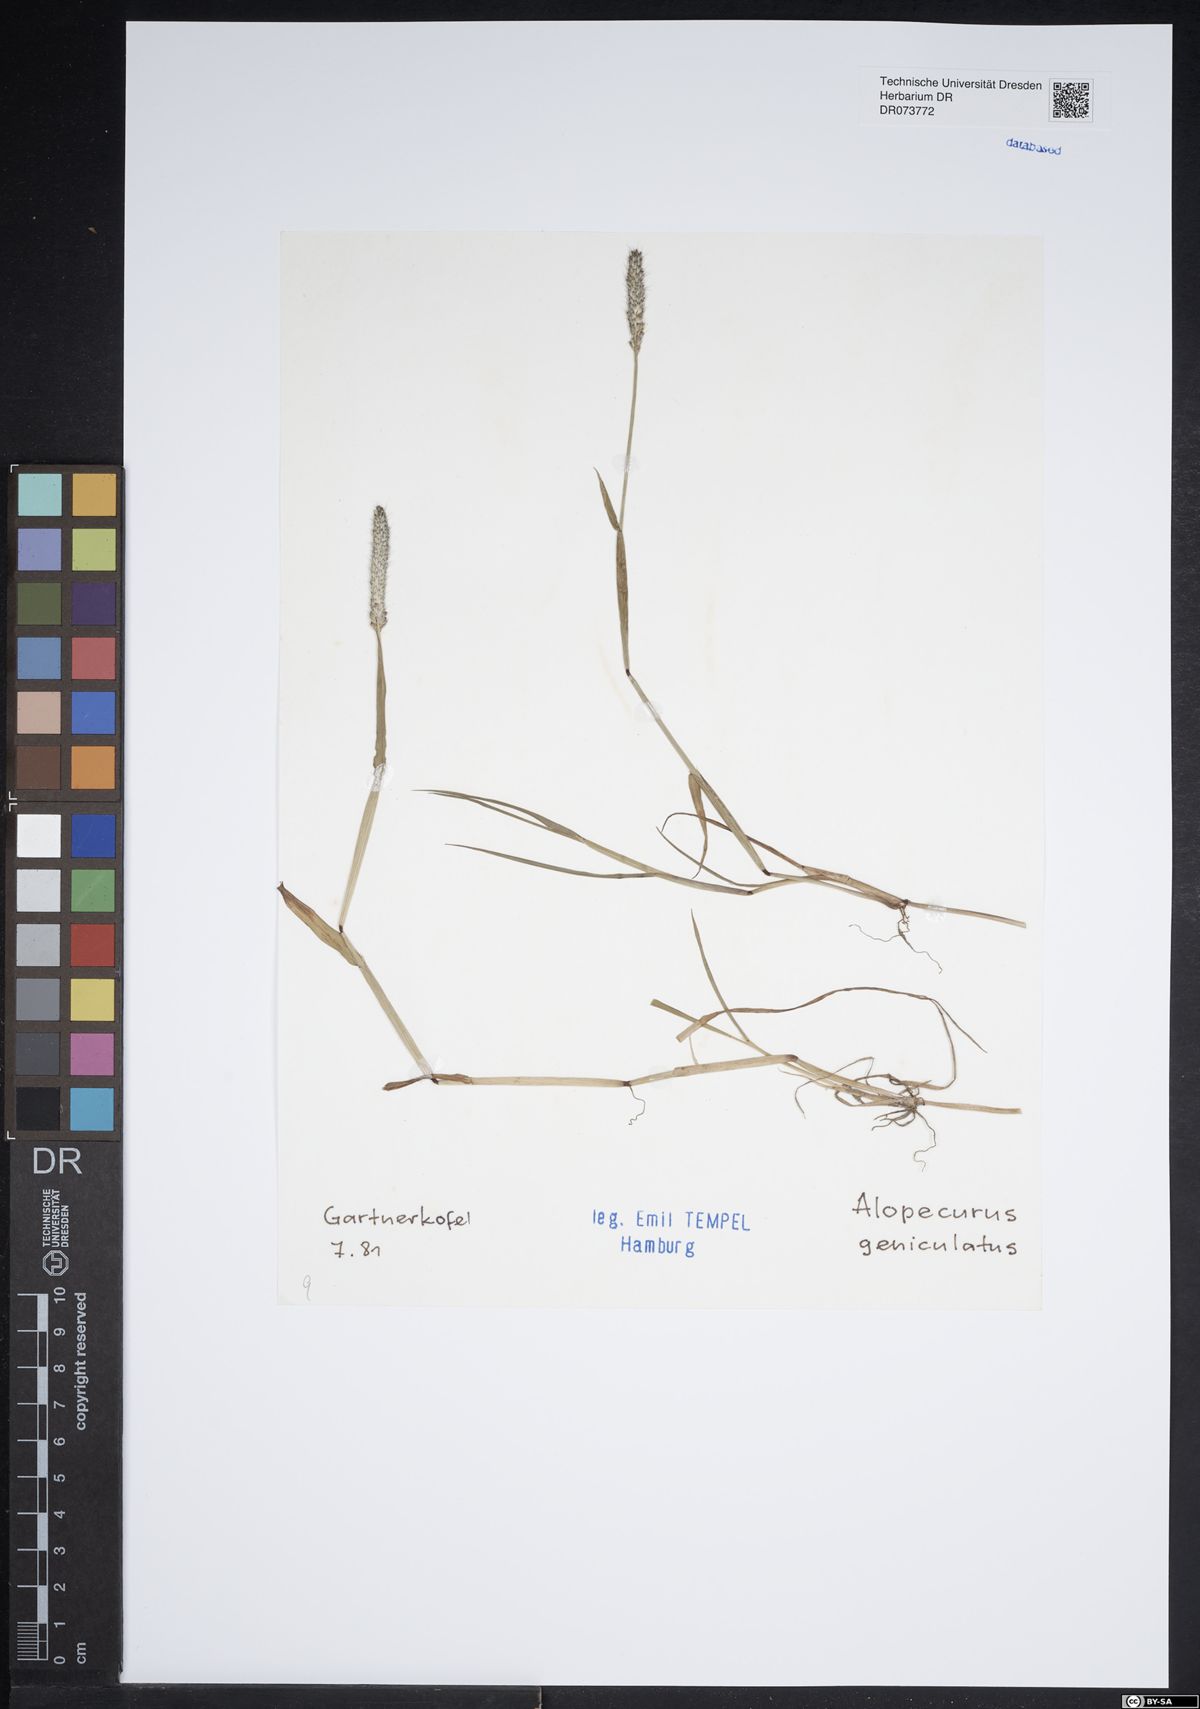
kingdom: Plantae
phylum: Tracheophyta
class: Liliopsida
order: Poales
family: Poaceae
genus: Alopecurus
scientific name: Alopecurus geniculatus
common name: Water foxtail
